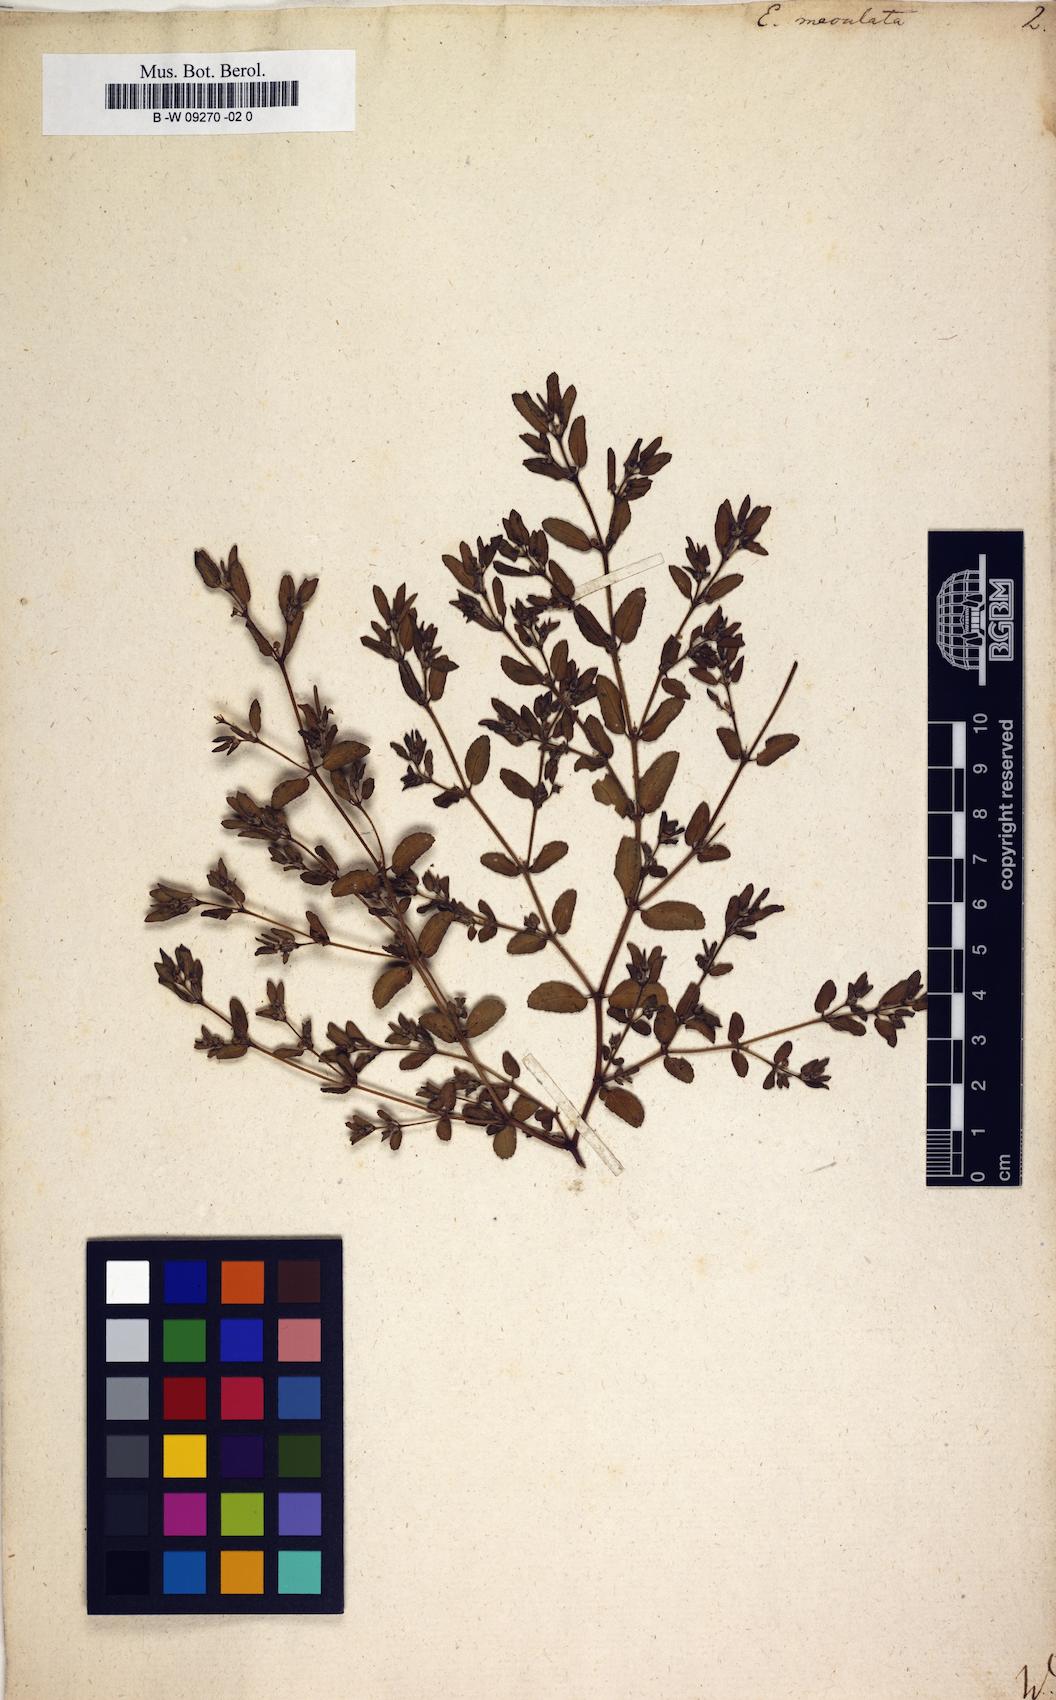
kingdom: Plantae
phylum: Tracheophyta
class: Magnoliopsida
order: Malpighiales
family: Euphorbiaceae
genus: Euphorbia
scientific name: Euphorbia maculata
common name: Spotted spurge
